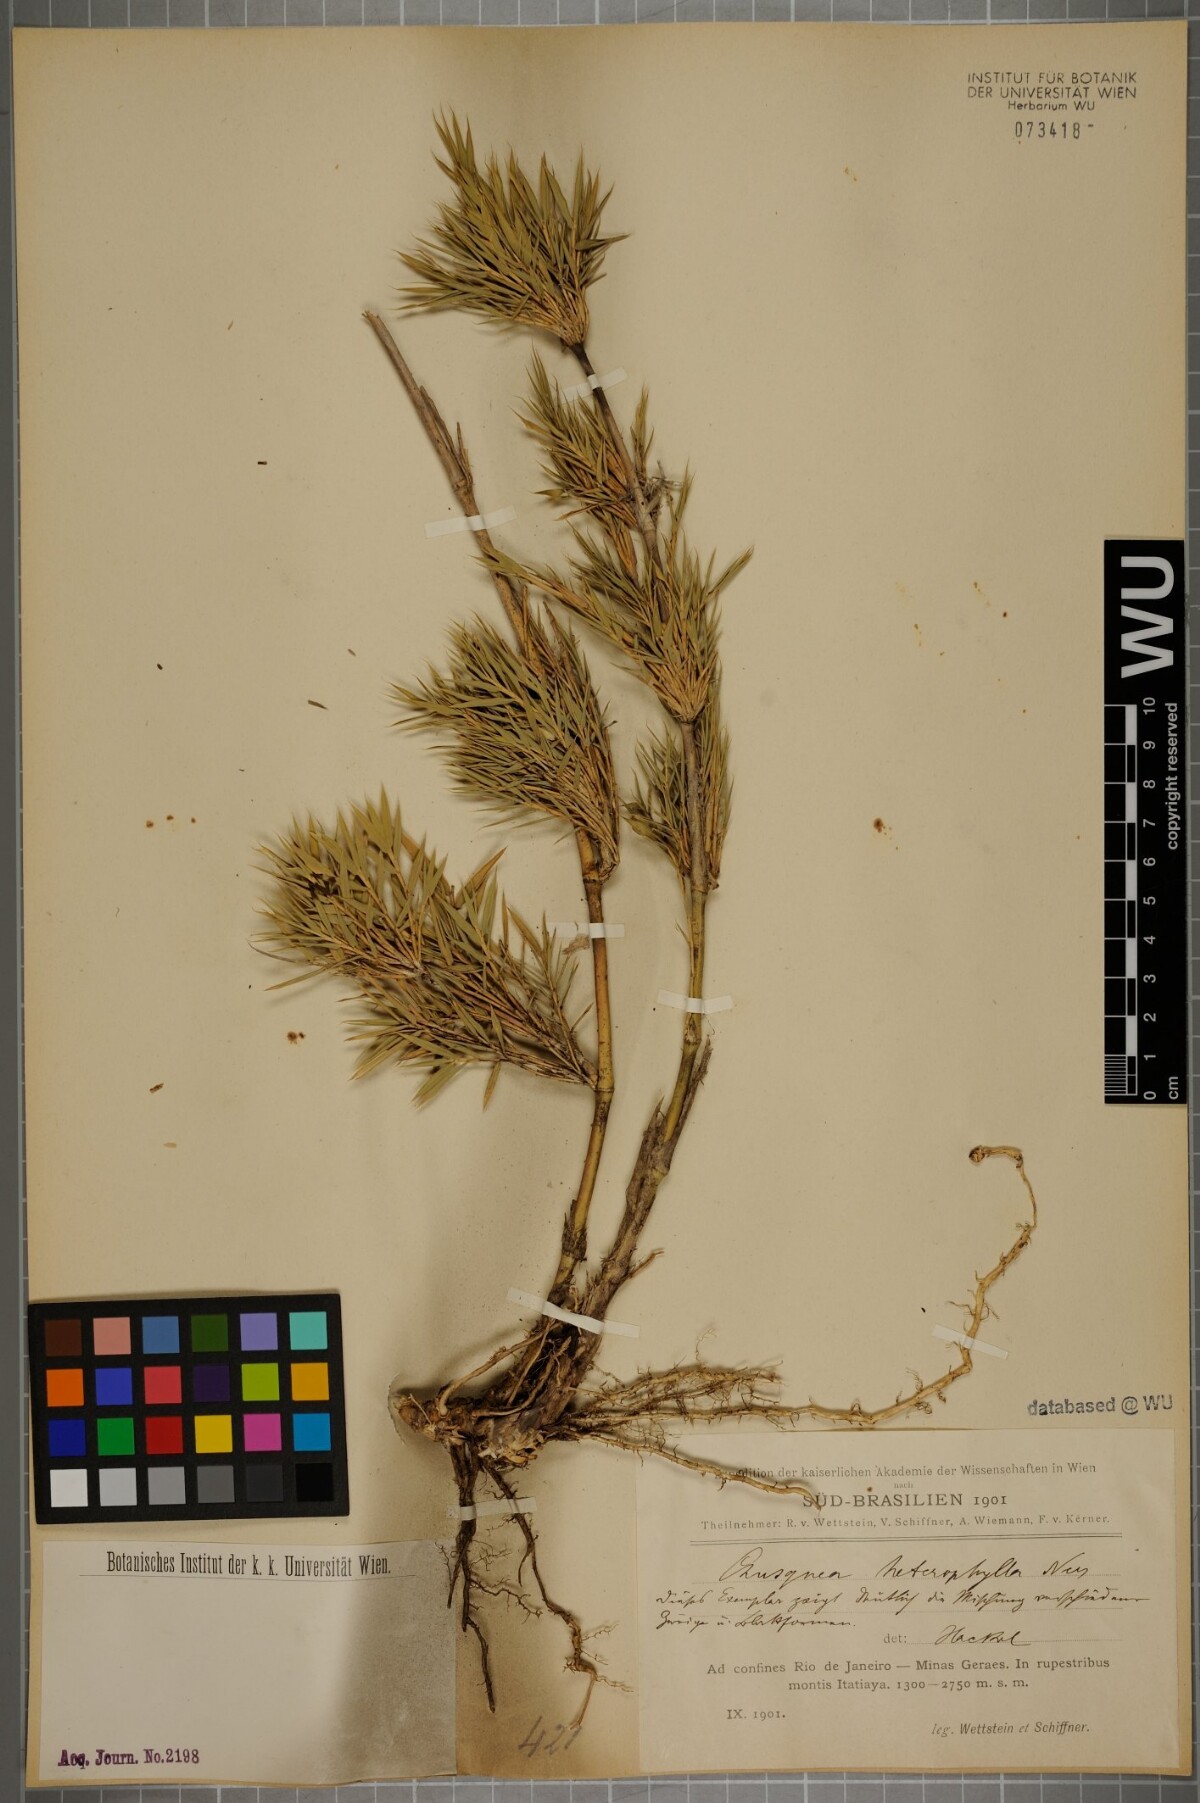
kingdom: Plantae
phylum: Tracheophyta
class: Liliopsida
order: Poales
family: Poaceae
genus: Chusquea
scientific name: Chusquea heterophylla
